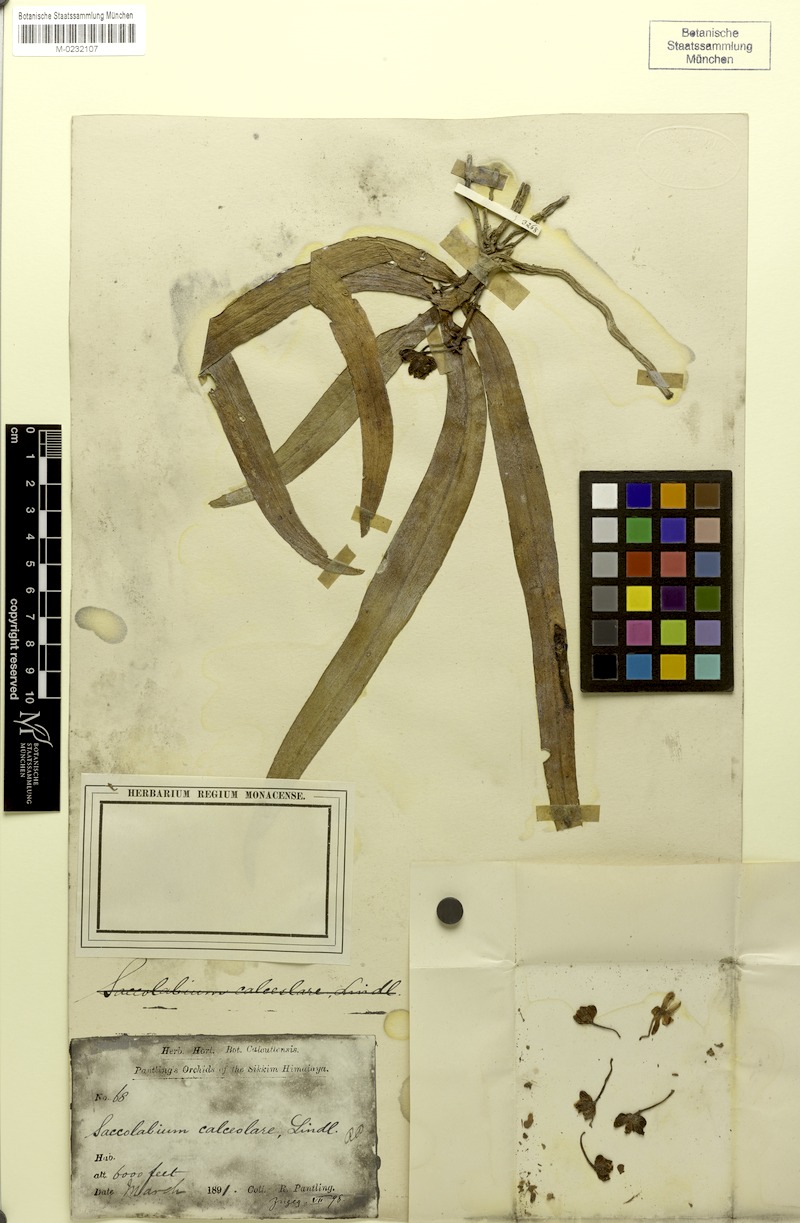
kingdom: Plantae
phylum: Tracheophyta
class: Liliopsida
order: Asparagales
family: Orchidaceae
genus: Gastrochilus
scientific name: Gastrochilus calceolaris
